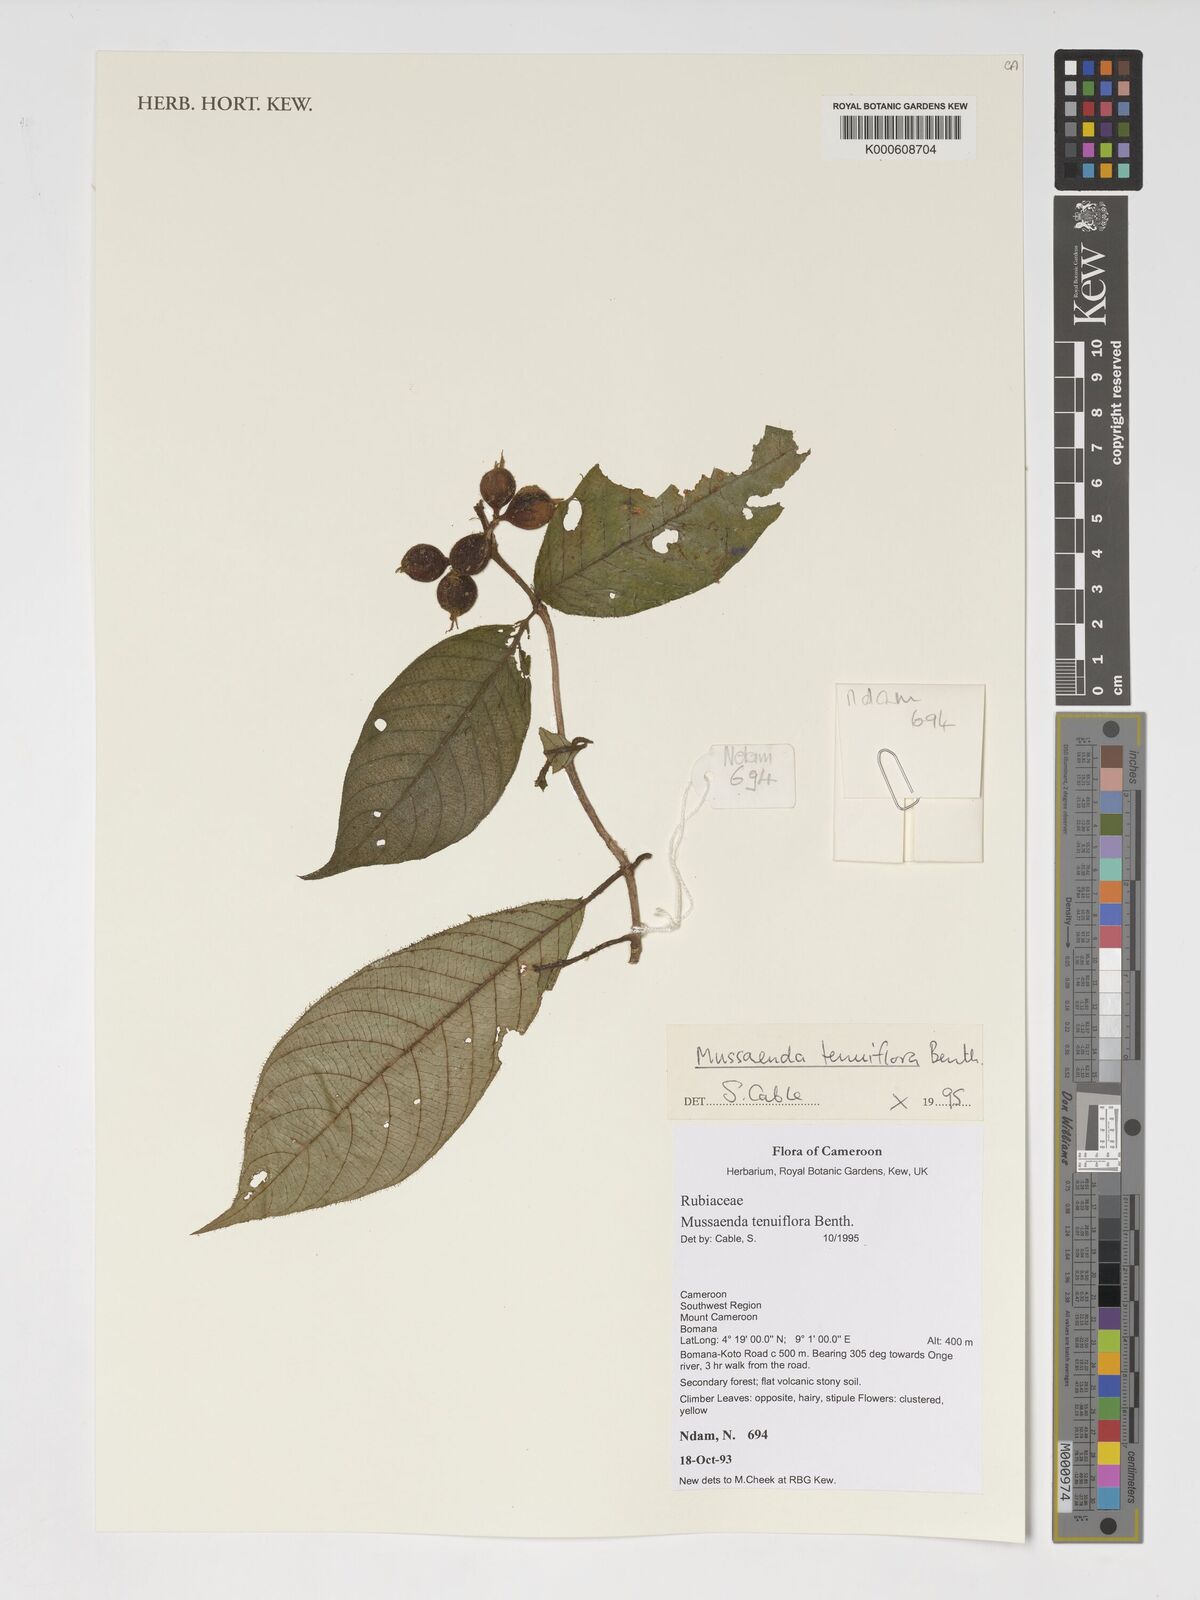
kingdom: Plantae
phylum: Tracheophyta
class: Magnoliopsida
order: Gentianales
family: Rubiaceae
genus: Mussaenda
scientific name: Mussaenda tenuiflora
